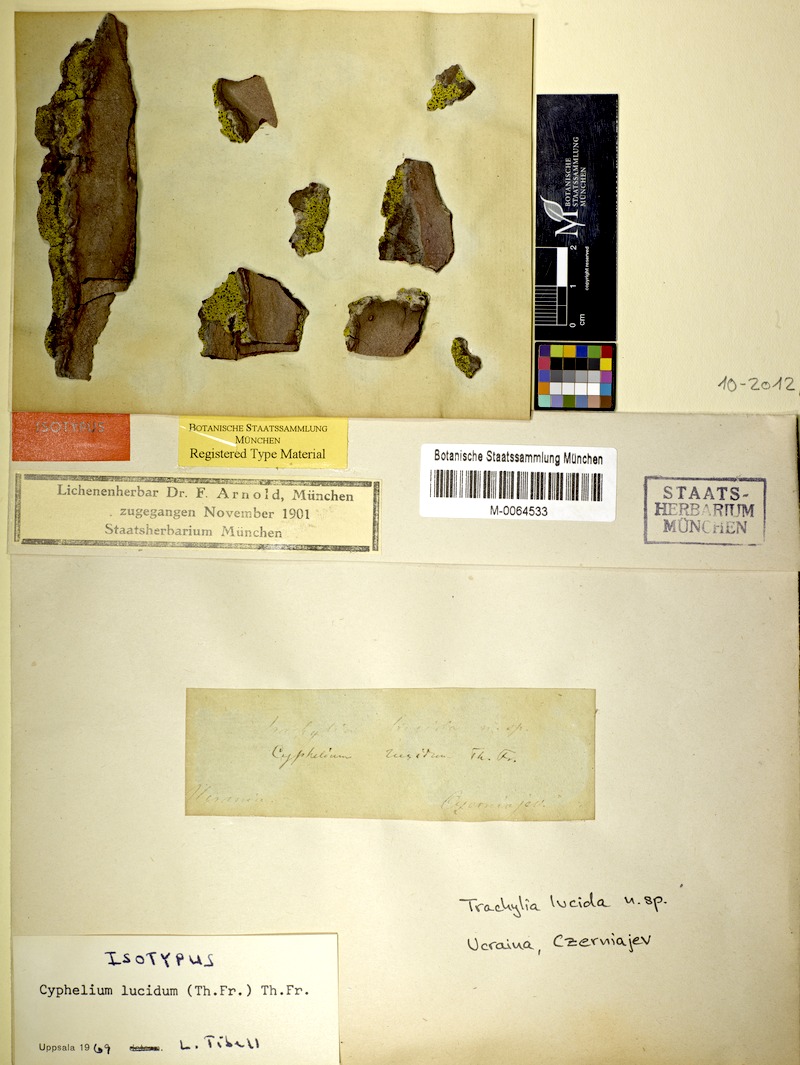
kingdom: Fungi
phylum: Ascomycota
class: Lecanoromycetes
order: Caliciales
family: Caliciaceae
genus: Calicium
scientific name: Calicium lucidum
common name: Yellow soot lichen
